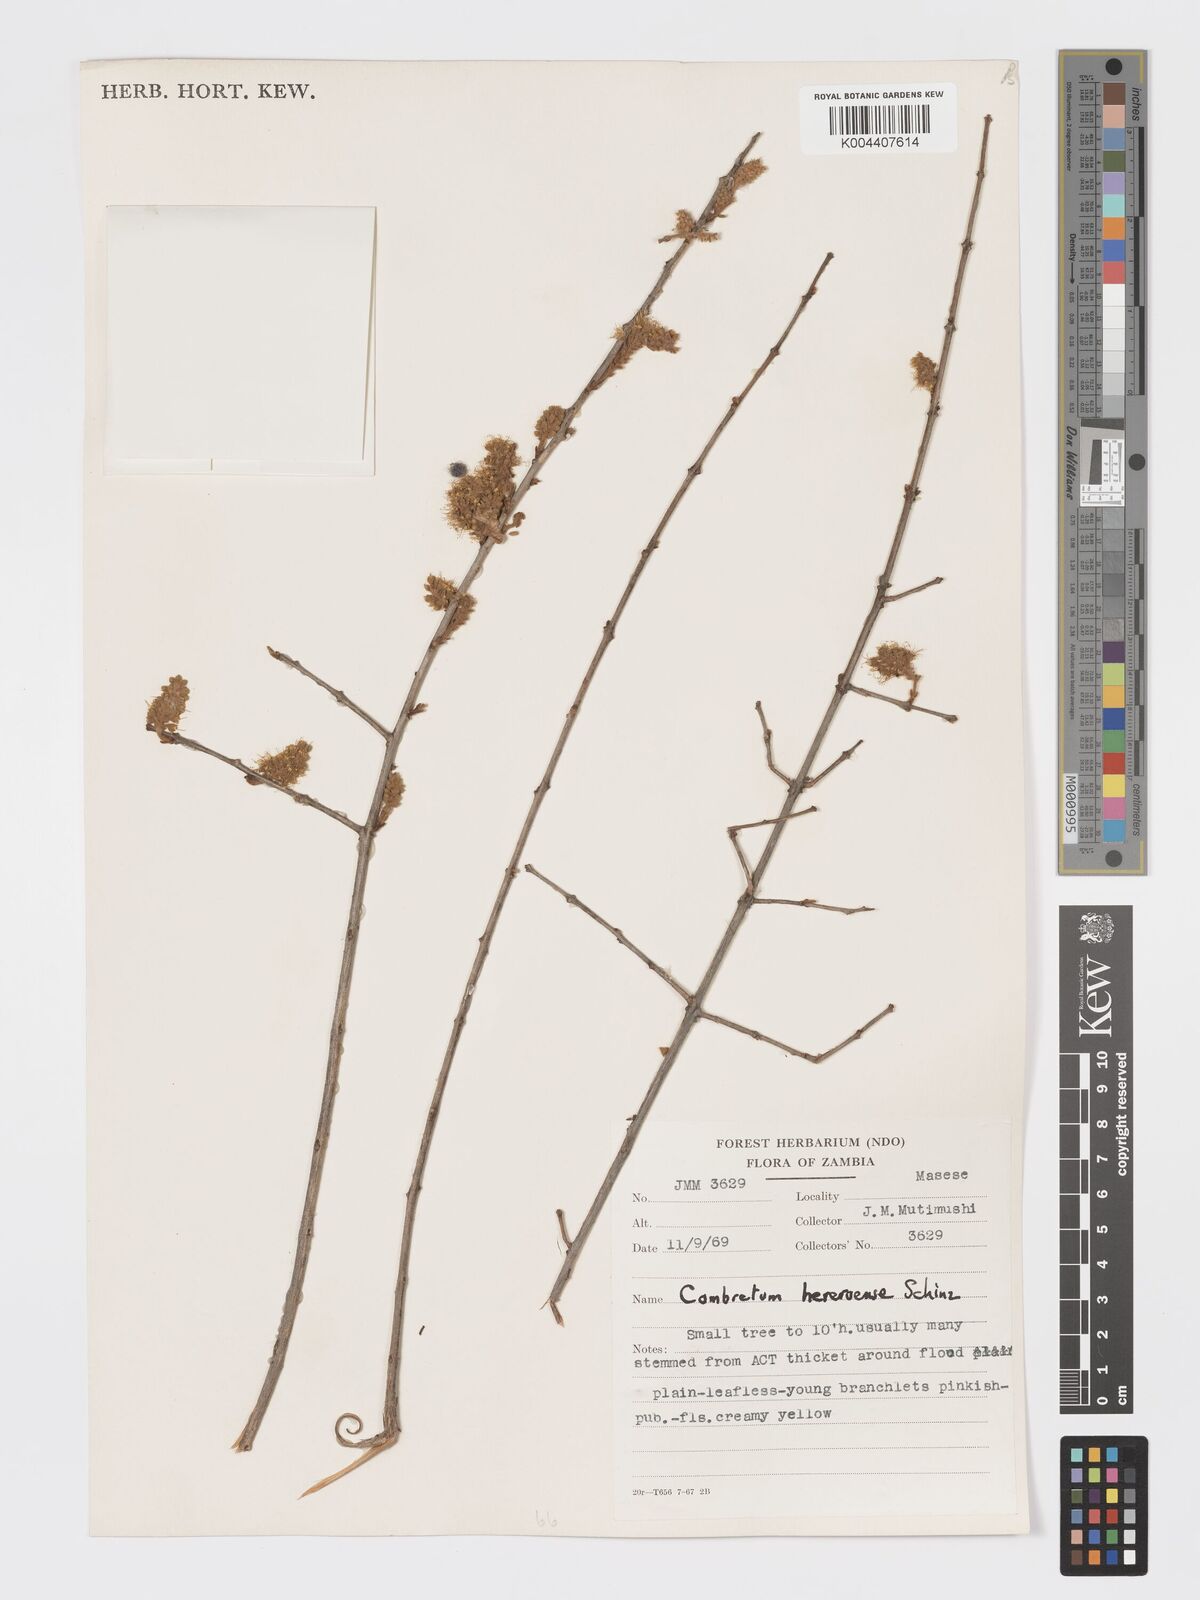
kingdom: Plantae
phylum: Tracheophyta
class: Magnoliopsida
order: Myrtales
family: Combretaceae
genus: Combretum
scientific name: Combretum hereroense
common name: Russet bushwillow
